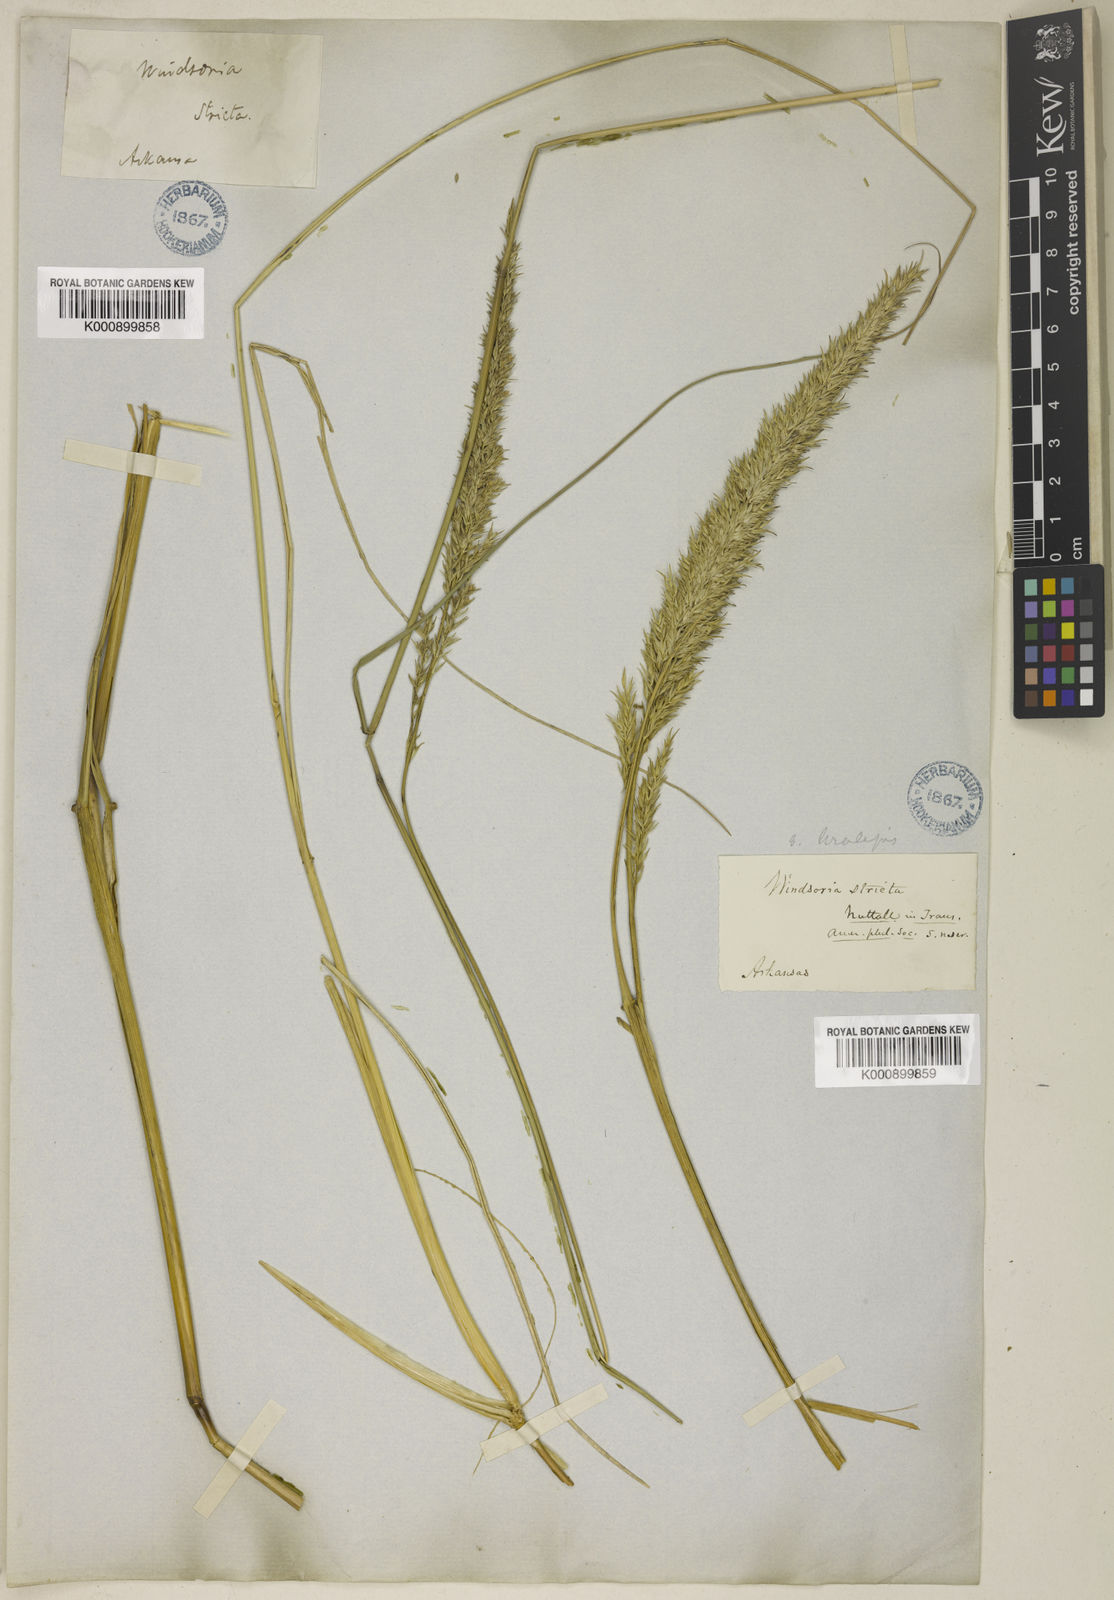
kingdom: Plantae
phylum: Tracheophyta
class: Liliopsida
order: Poales
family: Poaceae
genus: Tridens
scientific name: Tridens strictus
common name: Long-spike tridens
